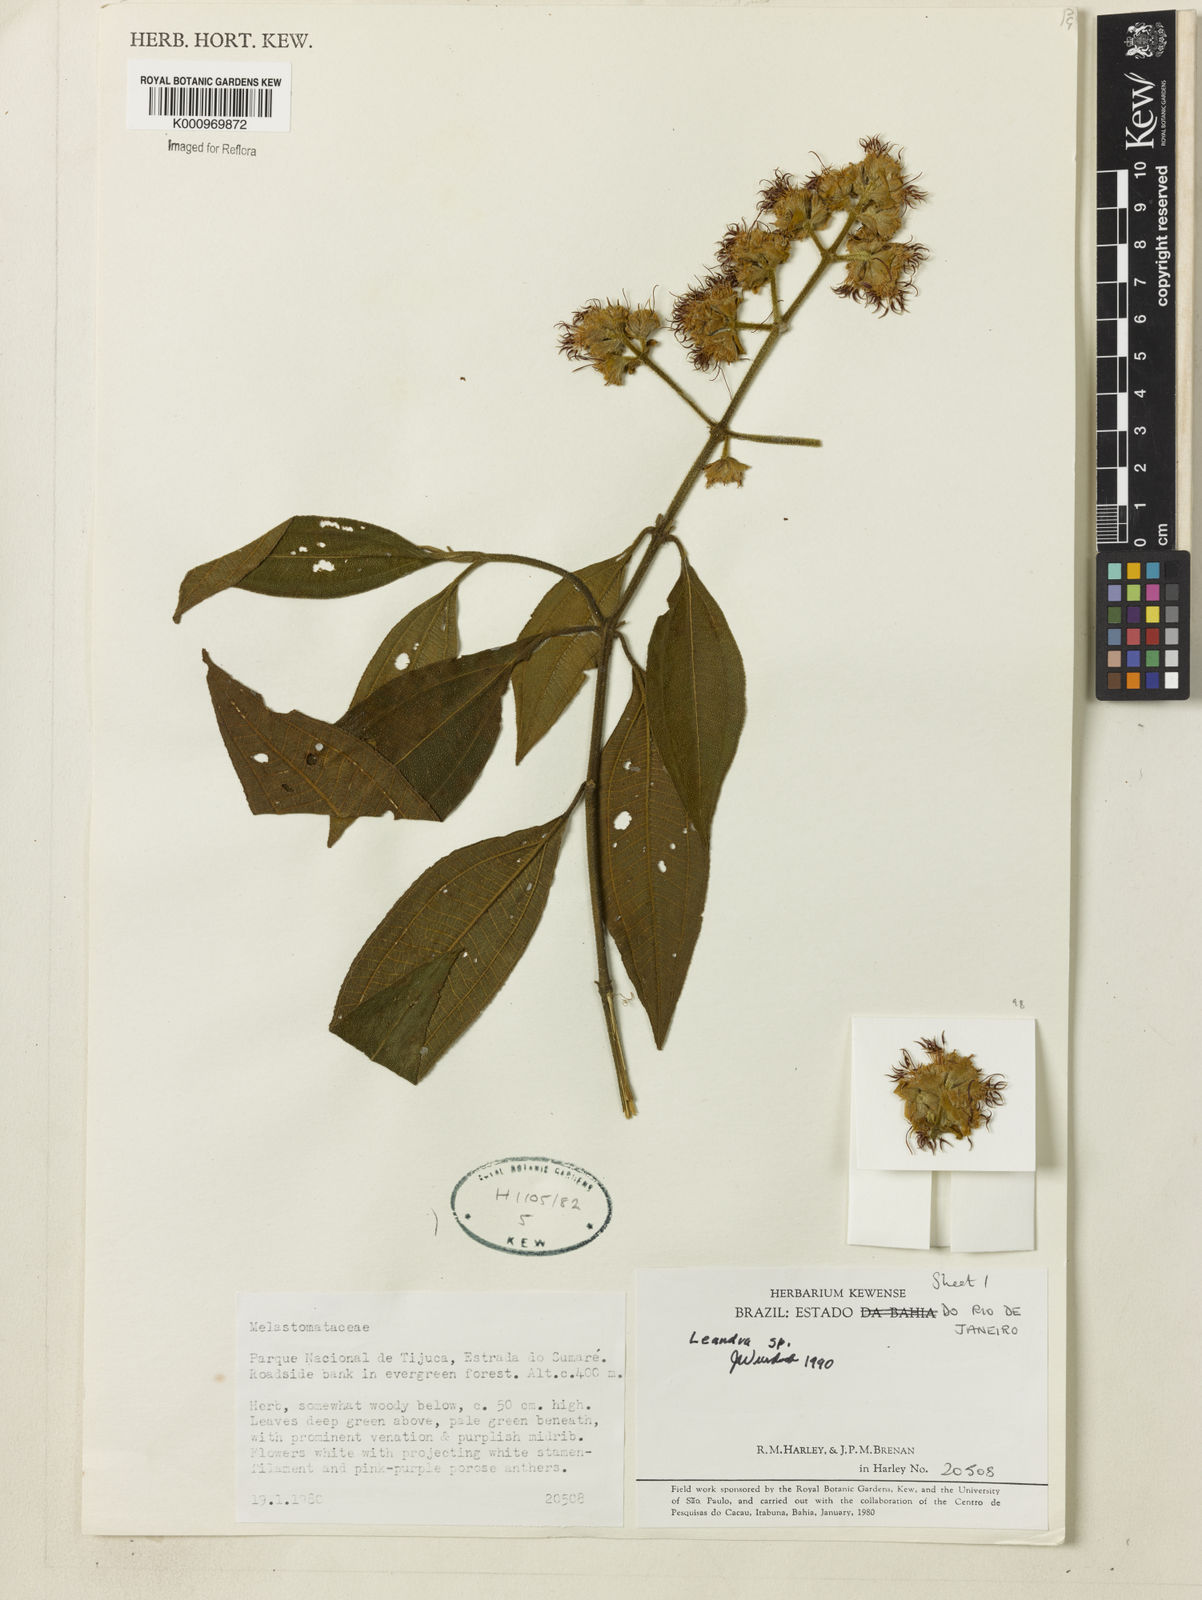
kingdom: Plantae
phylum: Tracheophyta
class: Magnoliopsida
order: Myrtales
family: Melastomataceae
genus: Miconia
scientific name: Miconia
